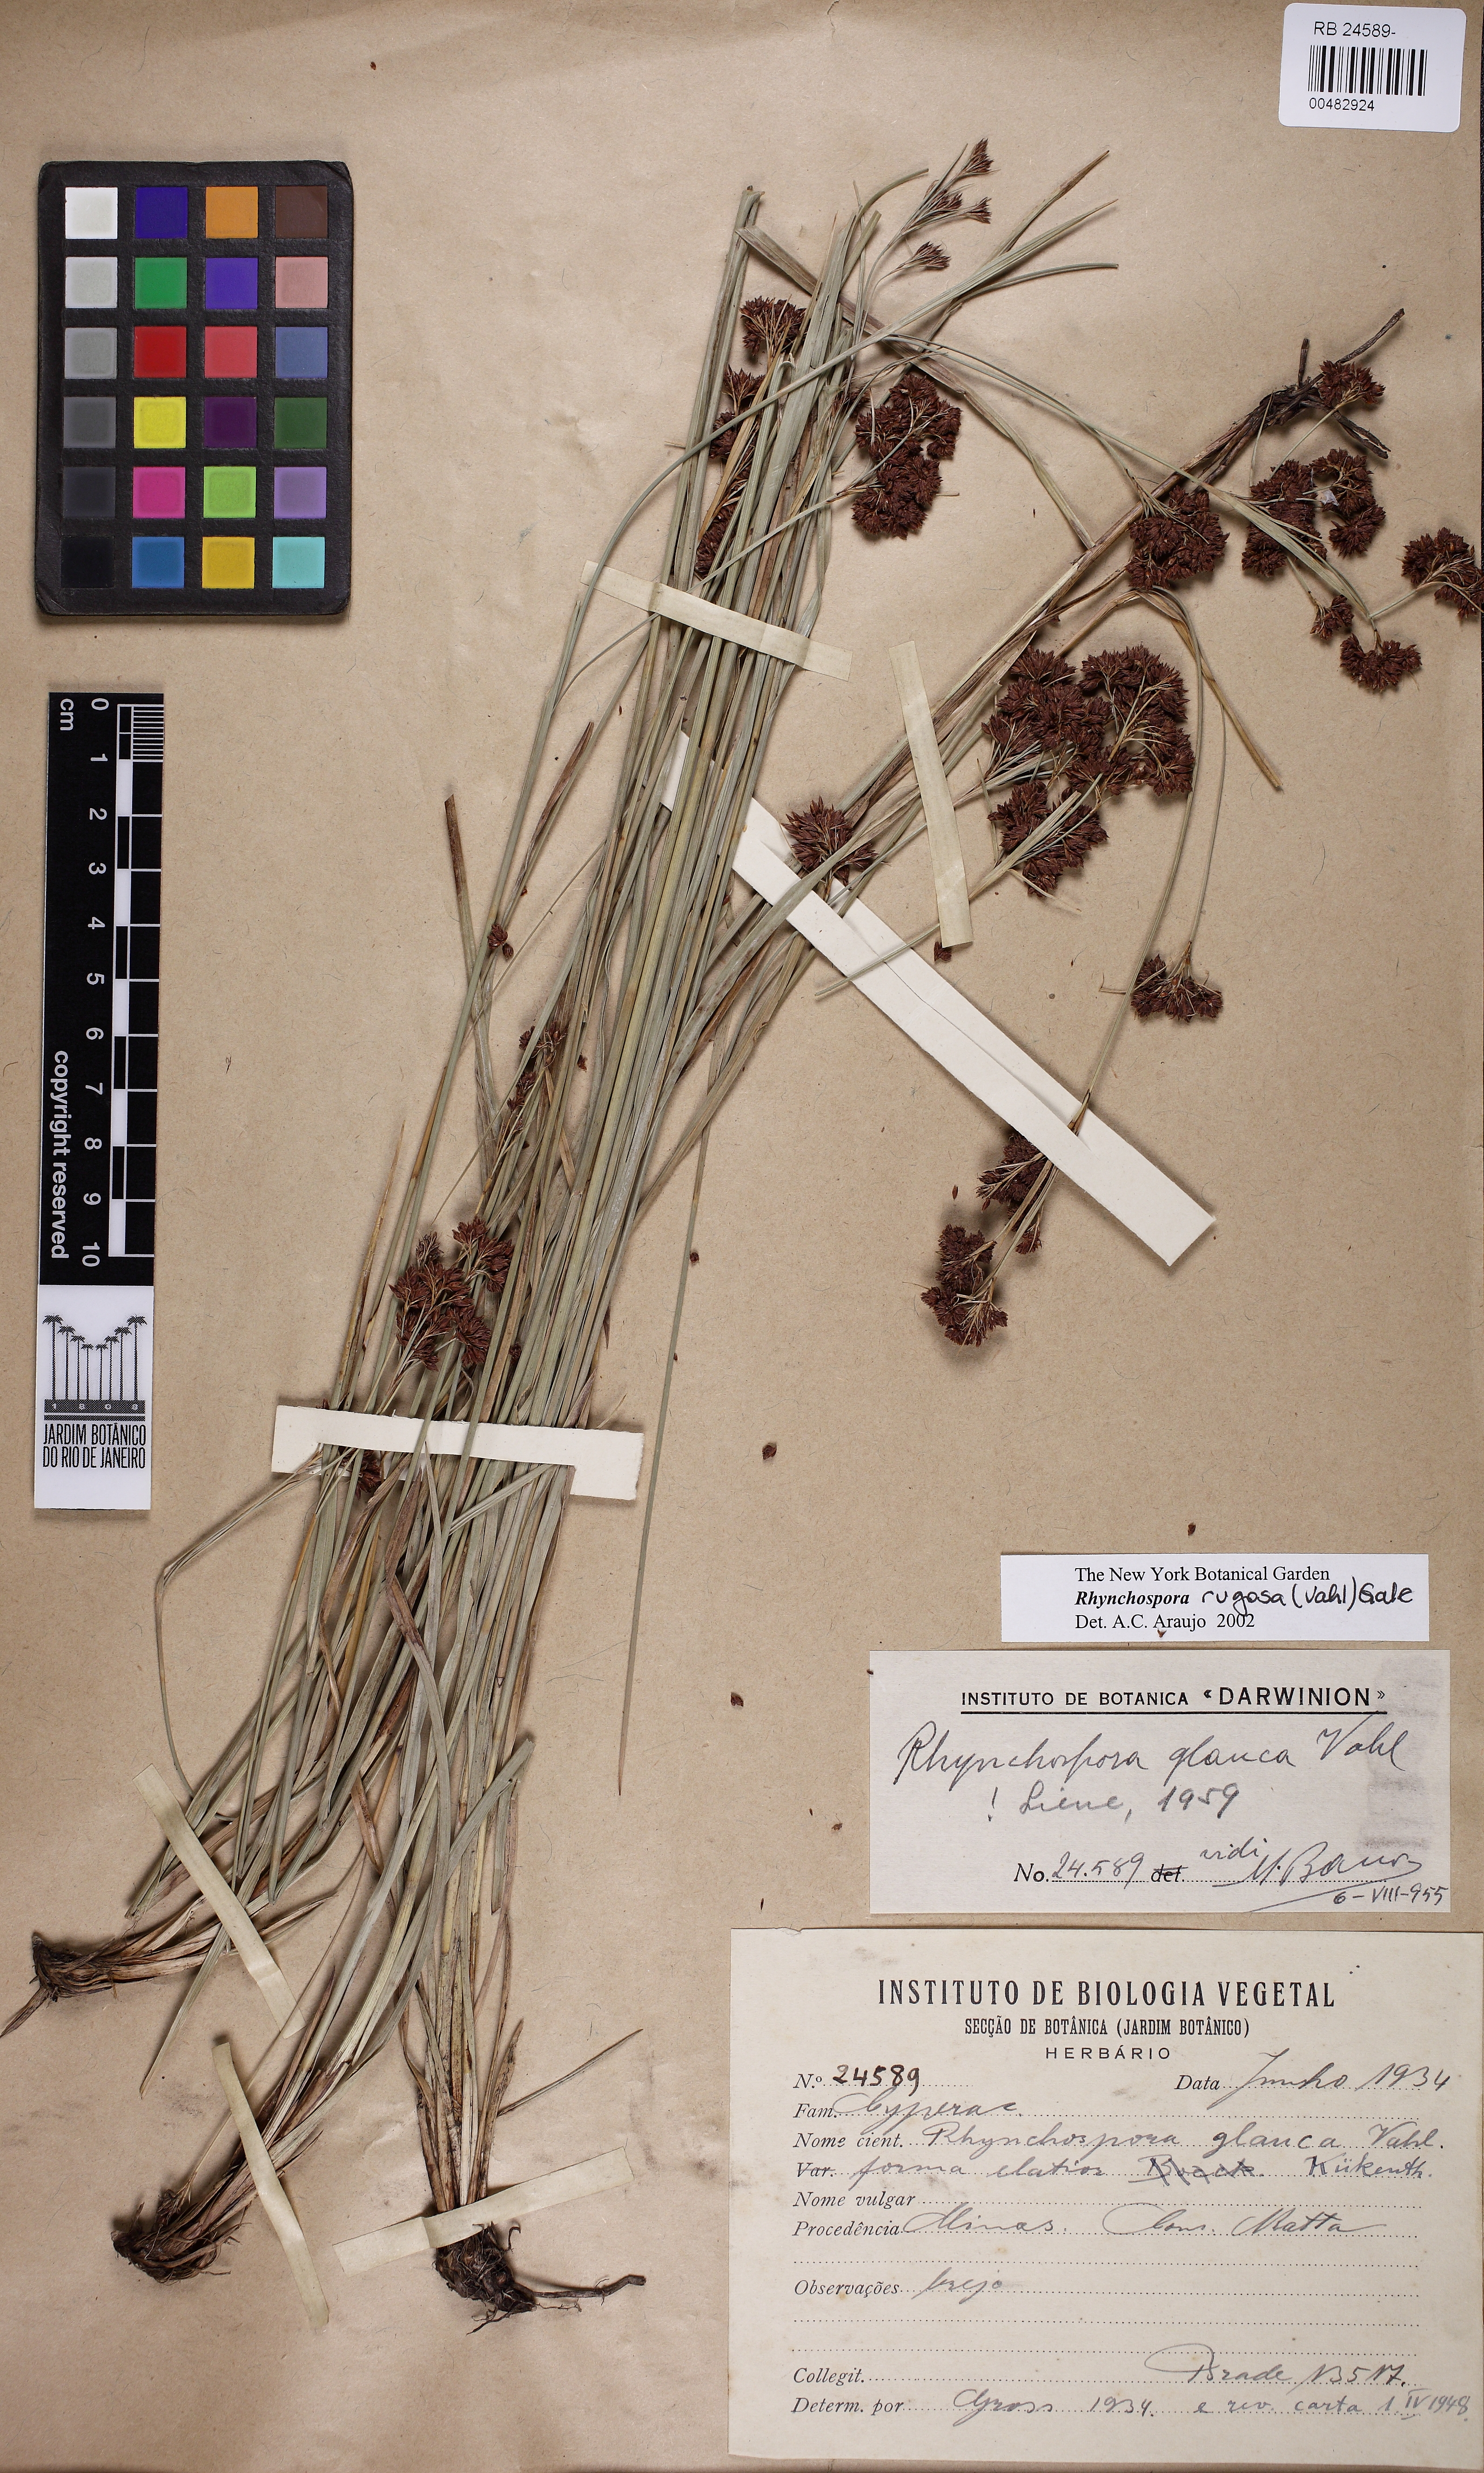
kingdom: Plantae
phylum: Tracheophyta
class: Liliopsida
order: Poales
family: Cyperaceae
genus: Rhynchospora
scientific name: Rhynchospora rugosa
